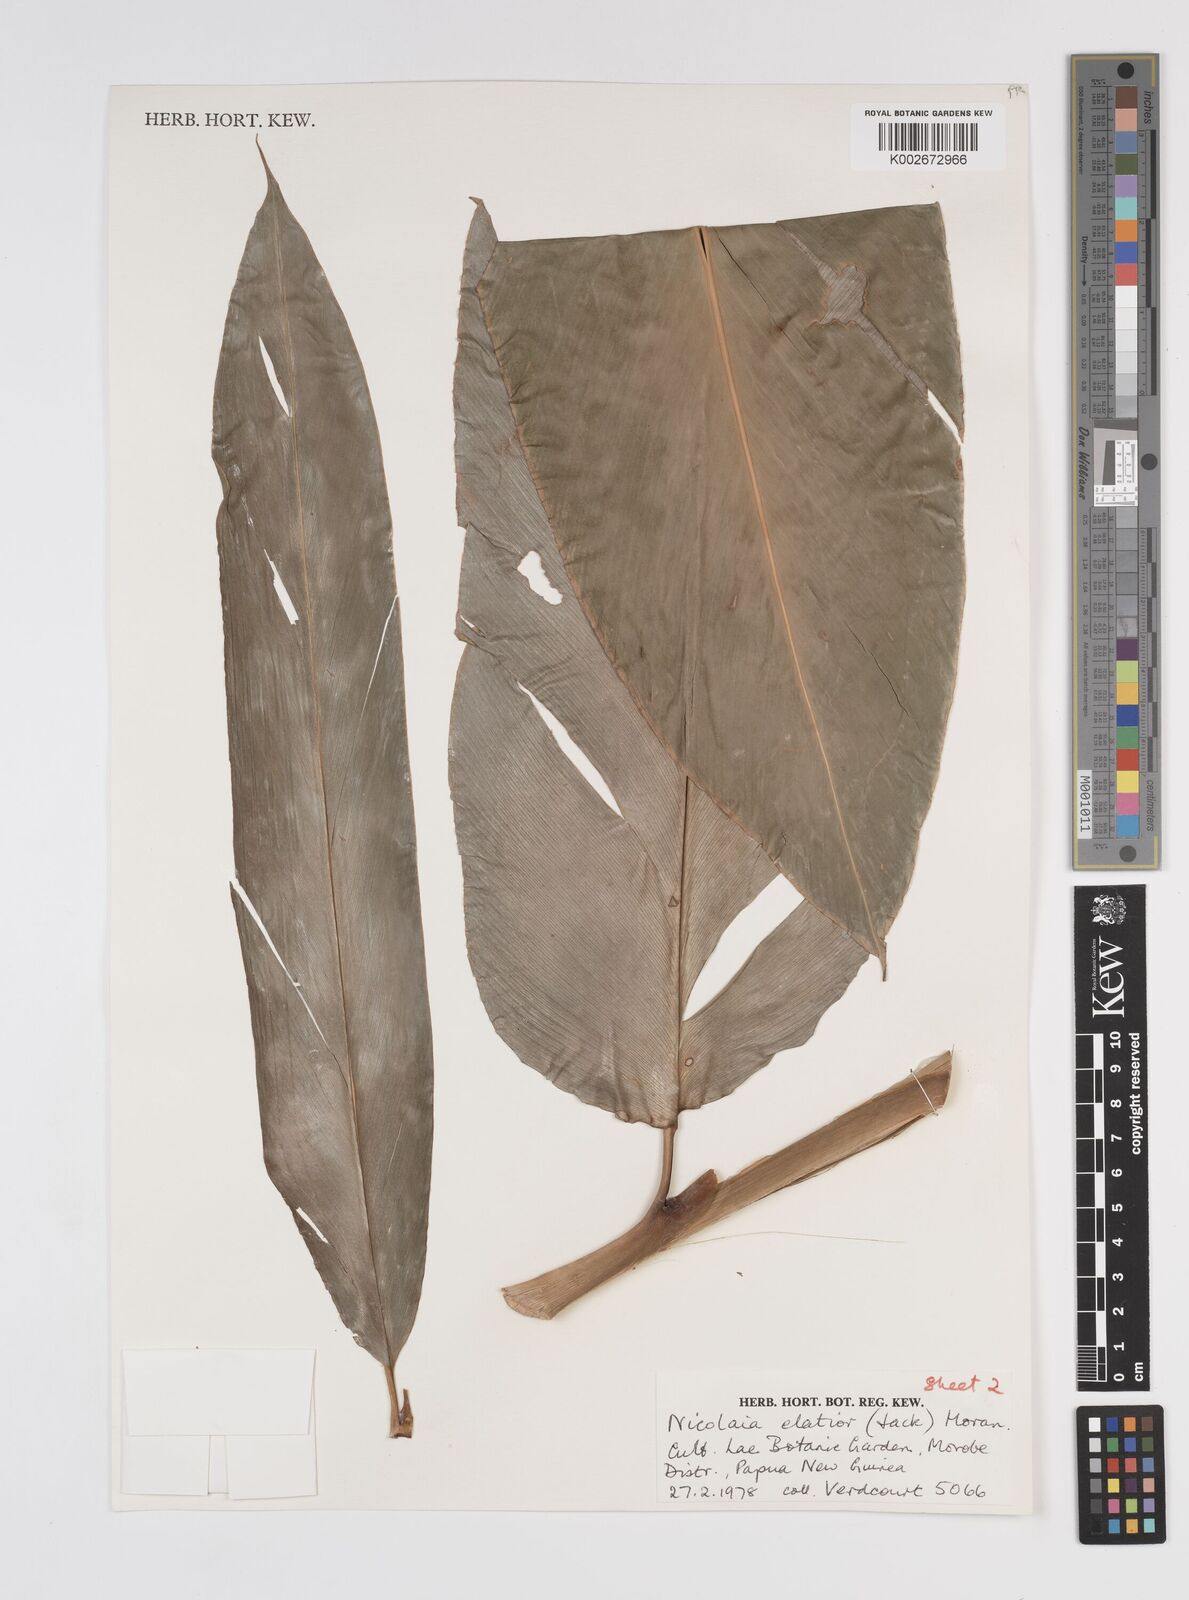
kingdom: Plantae
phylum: Tracheophyta
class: Liliopsida
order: Zingiberales
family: Zingiberaceae
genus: Etlingera
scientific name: Etlingera elatior
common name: Philippine waxflower
